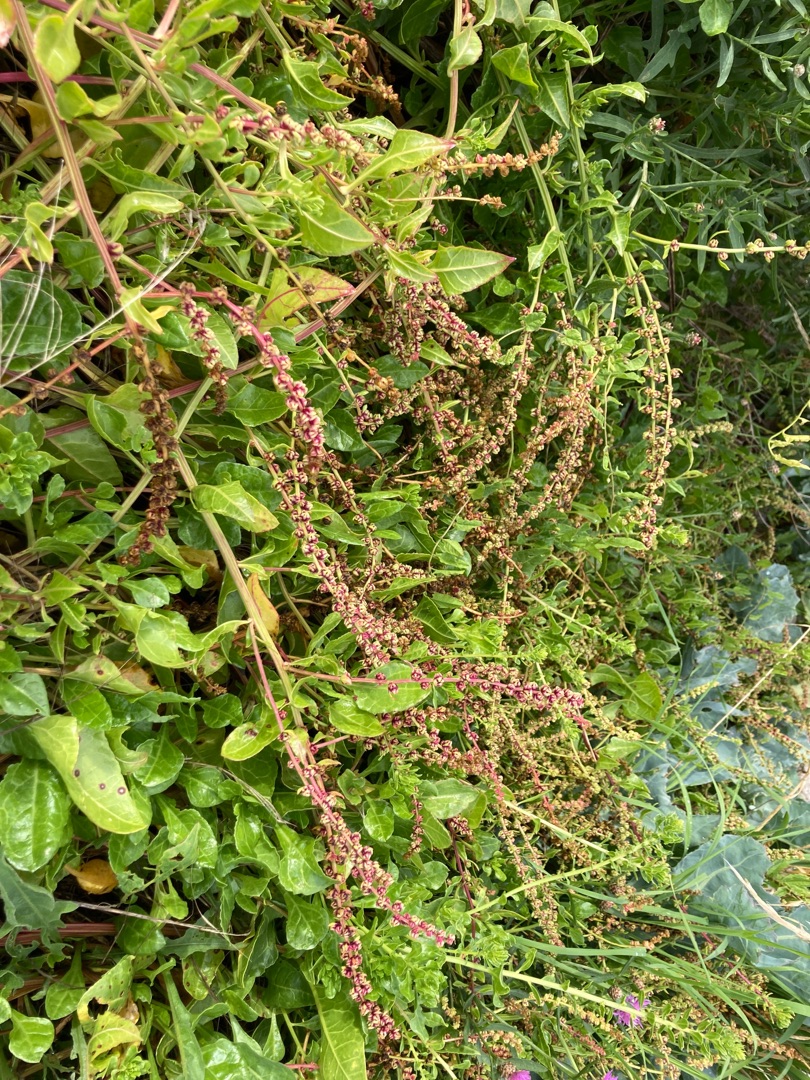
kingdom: Plantae
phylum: Tracheophyta
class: Magnoliopsida
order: Caryophyllales
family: Amaranthaceae
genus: Beta
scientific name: Beta maritima
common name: Strand-bede
